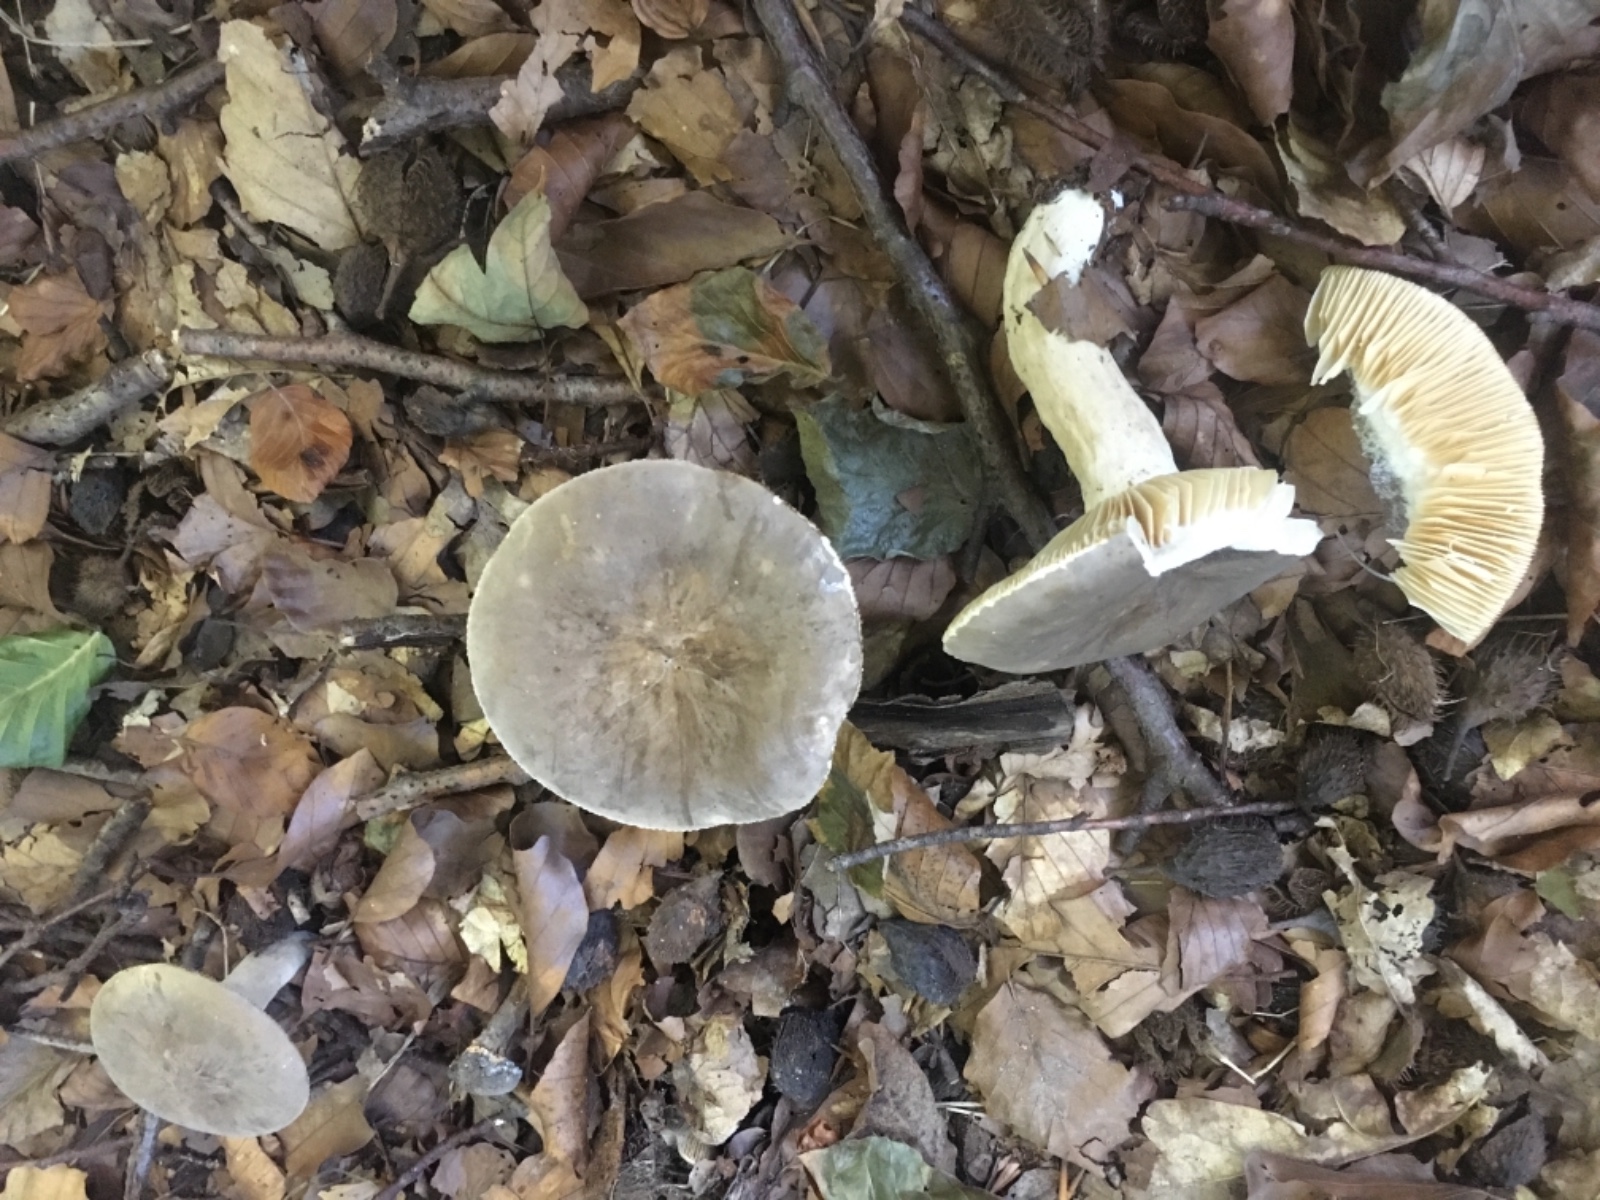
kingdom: Fungi
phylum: Basidiomycota
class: Agaricomycetes
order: Russulales
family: Russulaceae
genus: Lactarius
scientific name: Lactarius
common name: mælkehat
